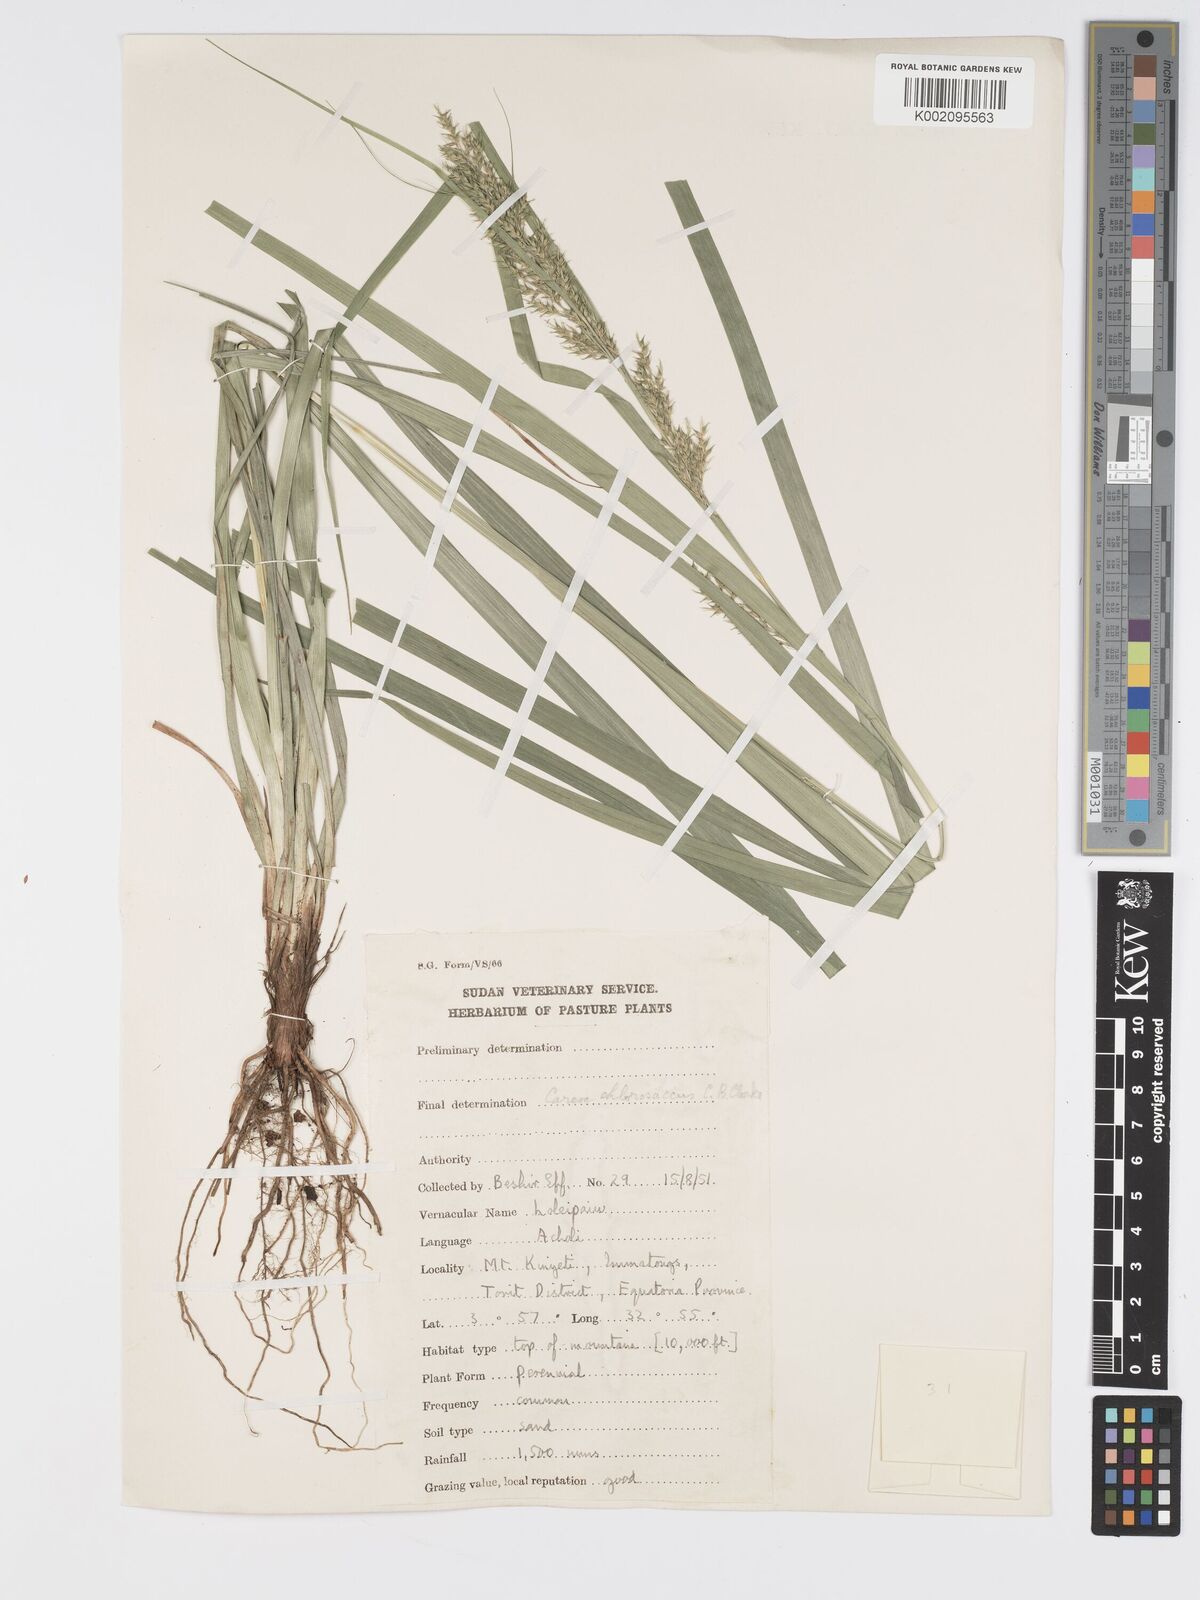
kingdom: Plantae
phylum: Tracheophyta
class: Liliopsida
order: Poales
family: Cyperaceae
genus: Carex
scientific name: Carex chlorosaccus
